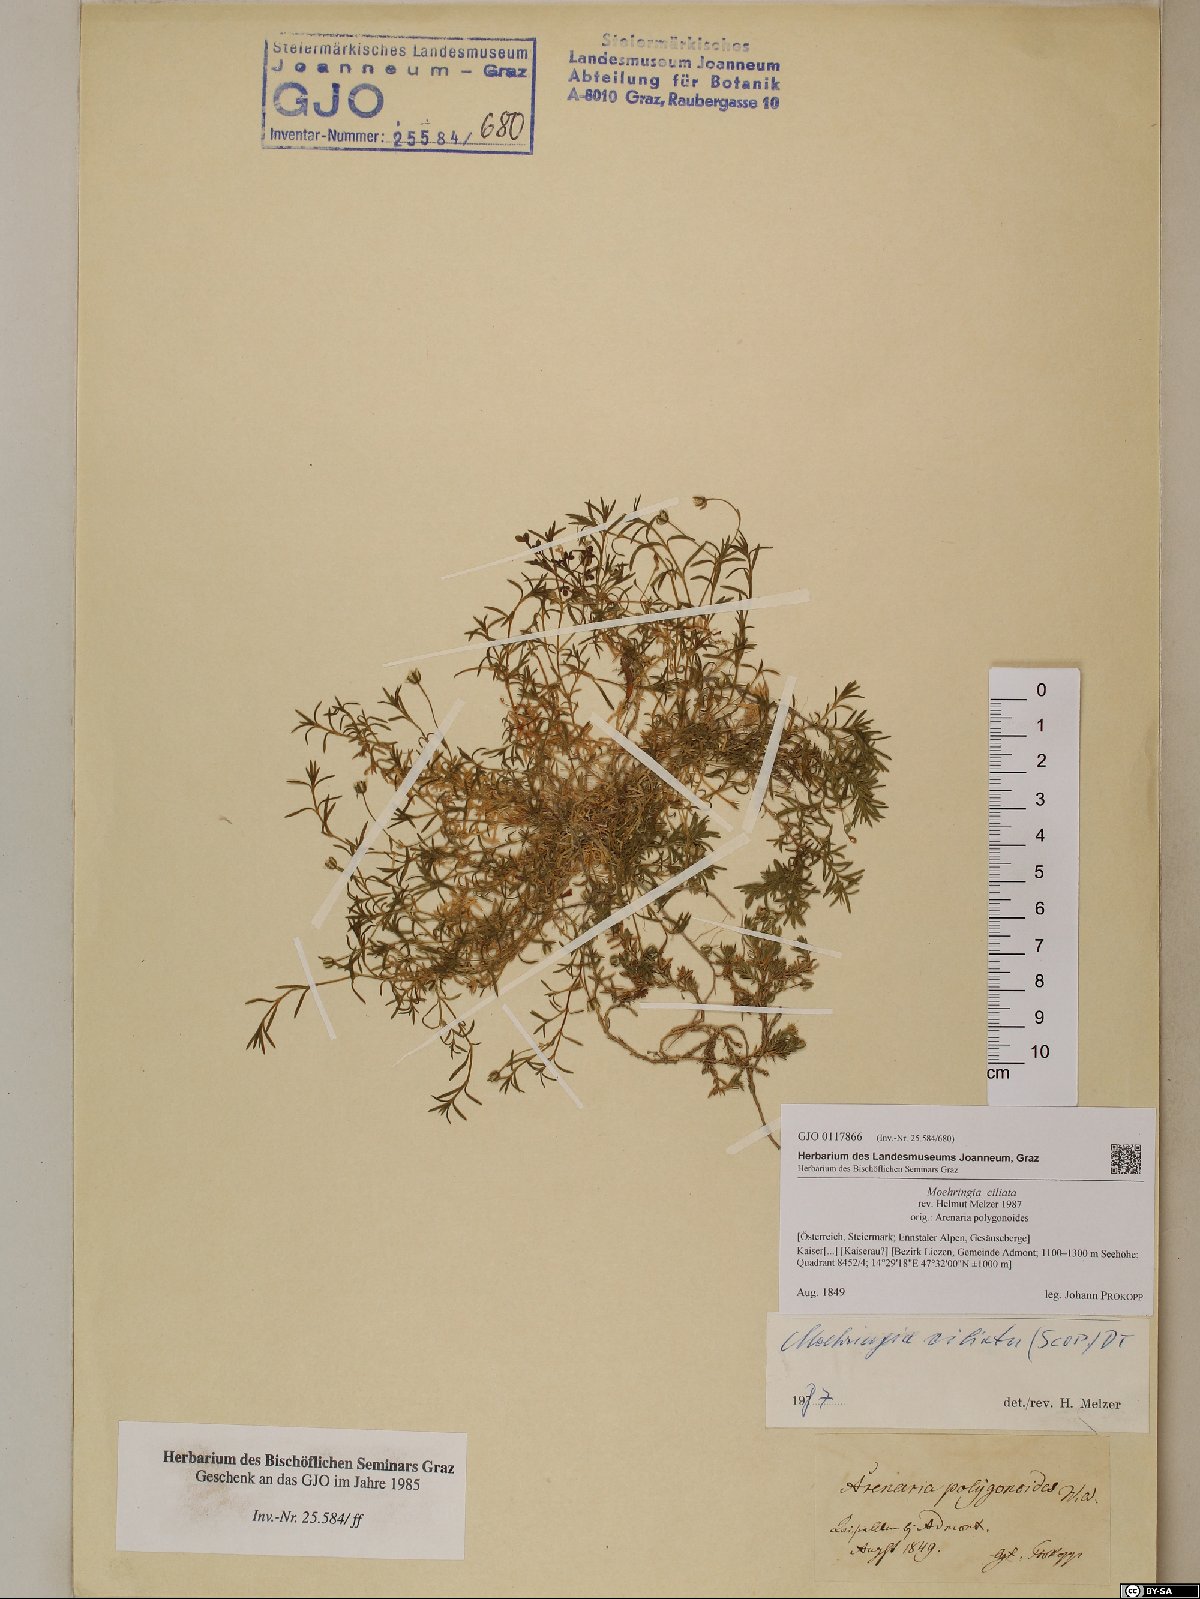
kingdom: Plantae
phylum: Tracheophyta
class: Magnoliopsida
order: Caryophyllales
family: Caryophyllaceae
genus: Moehringia
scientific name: Moehringia ciliata
